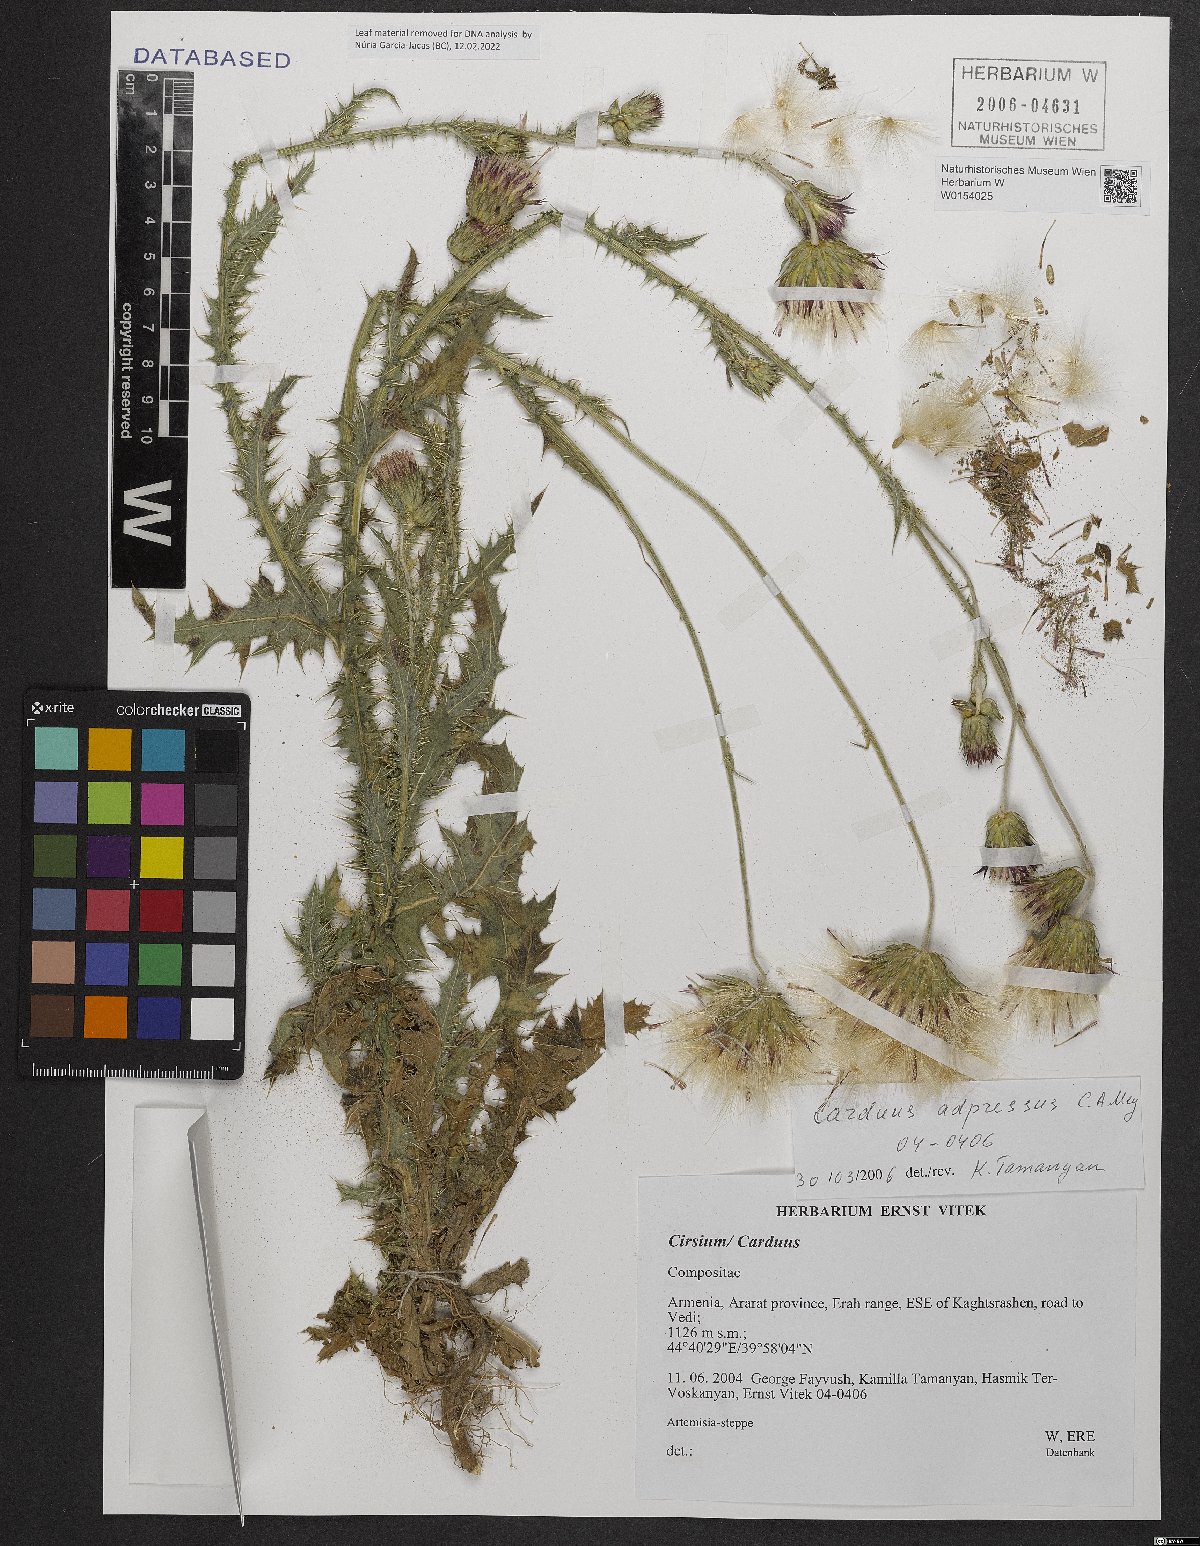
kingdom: Plantae
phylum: Tracheophyta
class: Magnoliopsida
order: Asterales
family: Asteraceae
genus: Carduus
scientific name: Carduus adpressus
